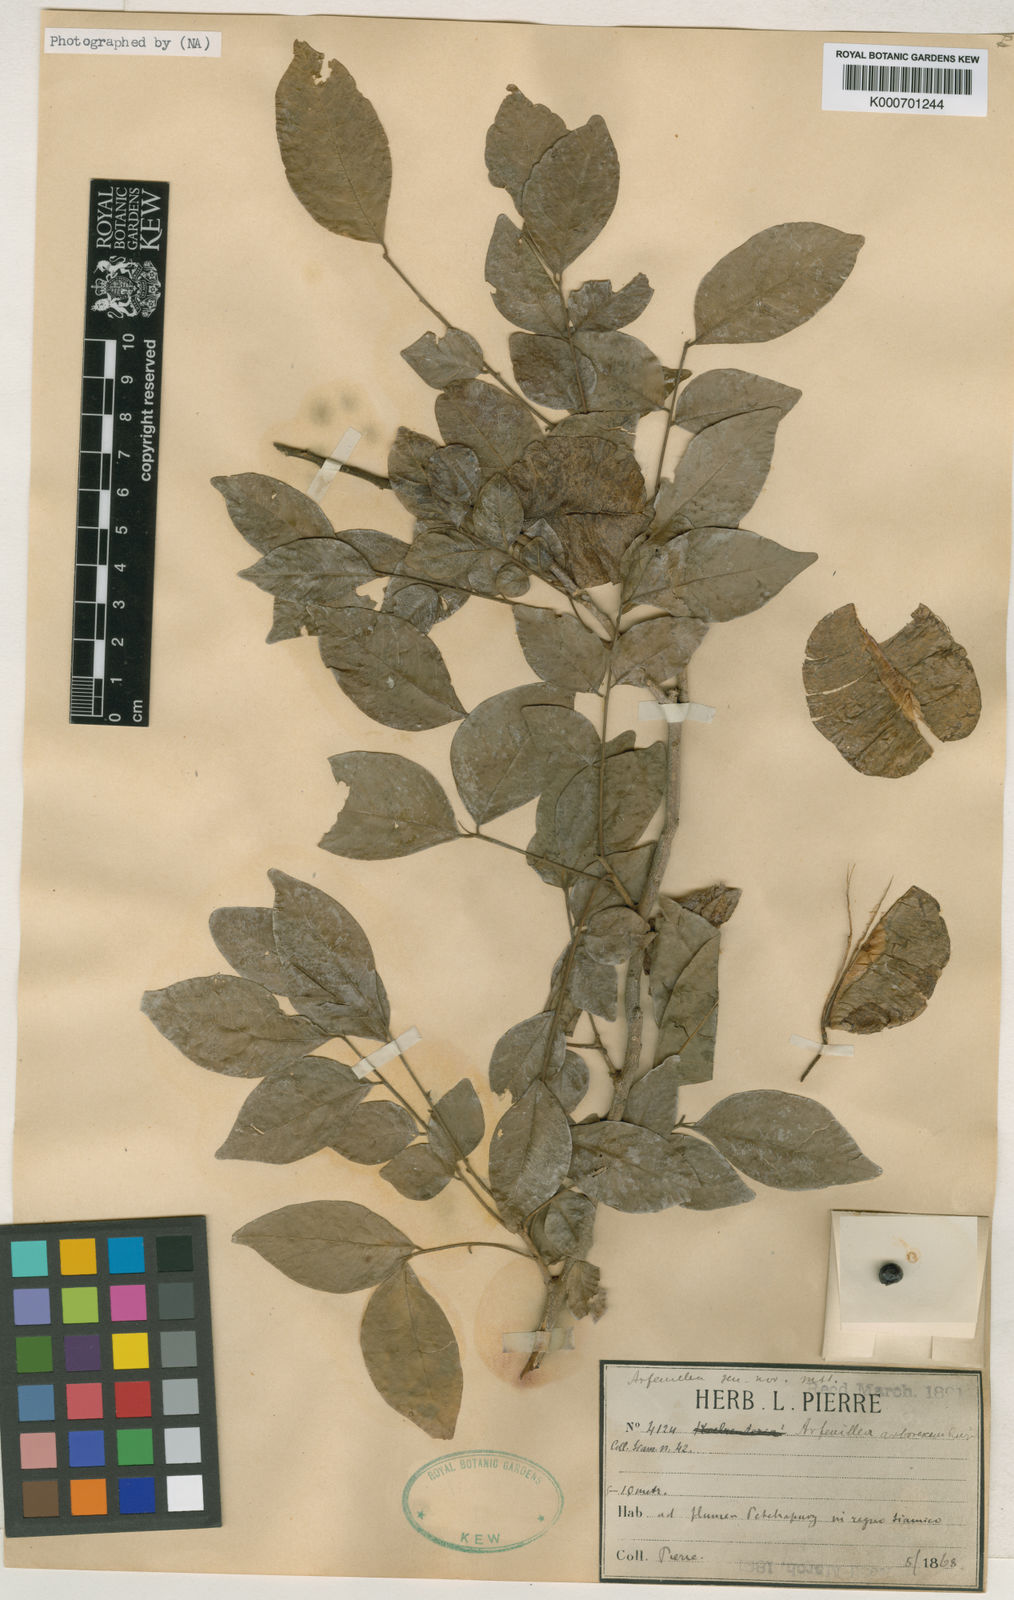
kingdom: Plantae
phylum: Tracheophyta
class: Magnoliopsida
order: Sapindales
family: Sapindaceae
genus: Arfeuillea
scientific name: Arfeuillea
